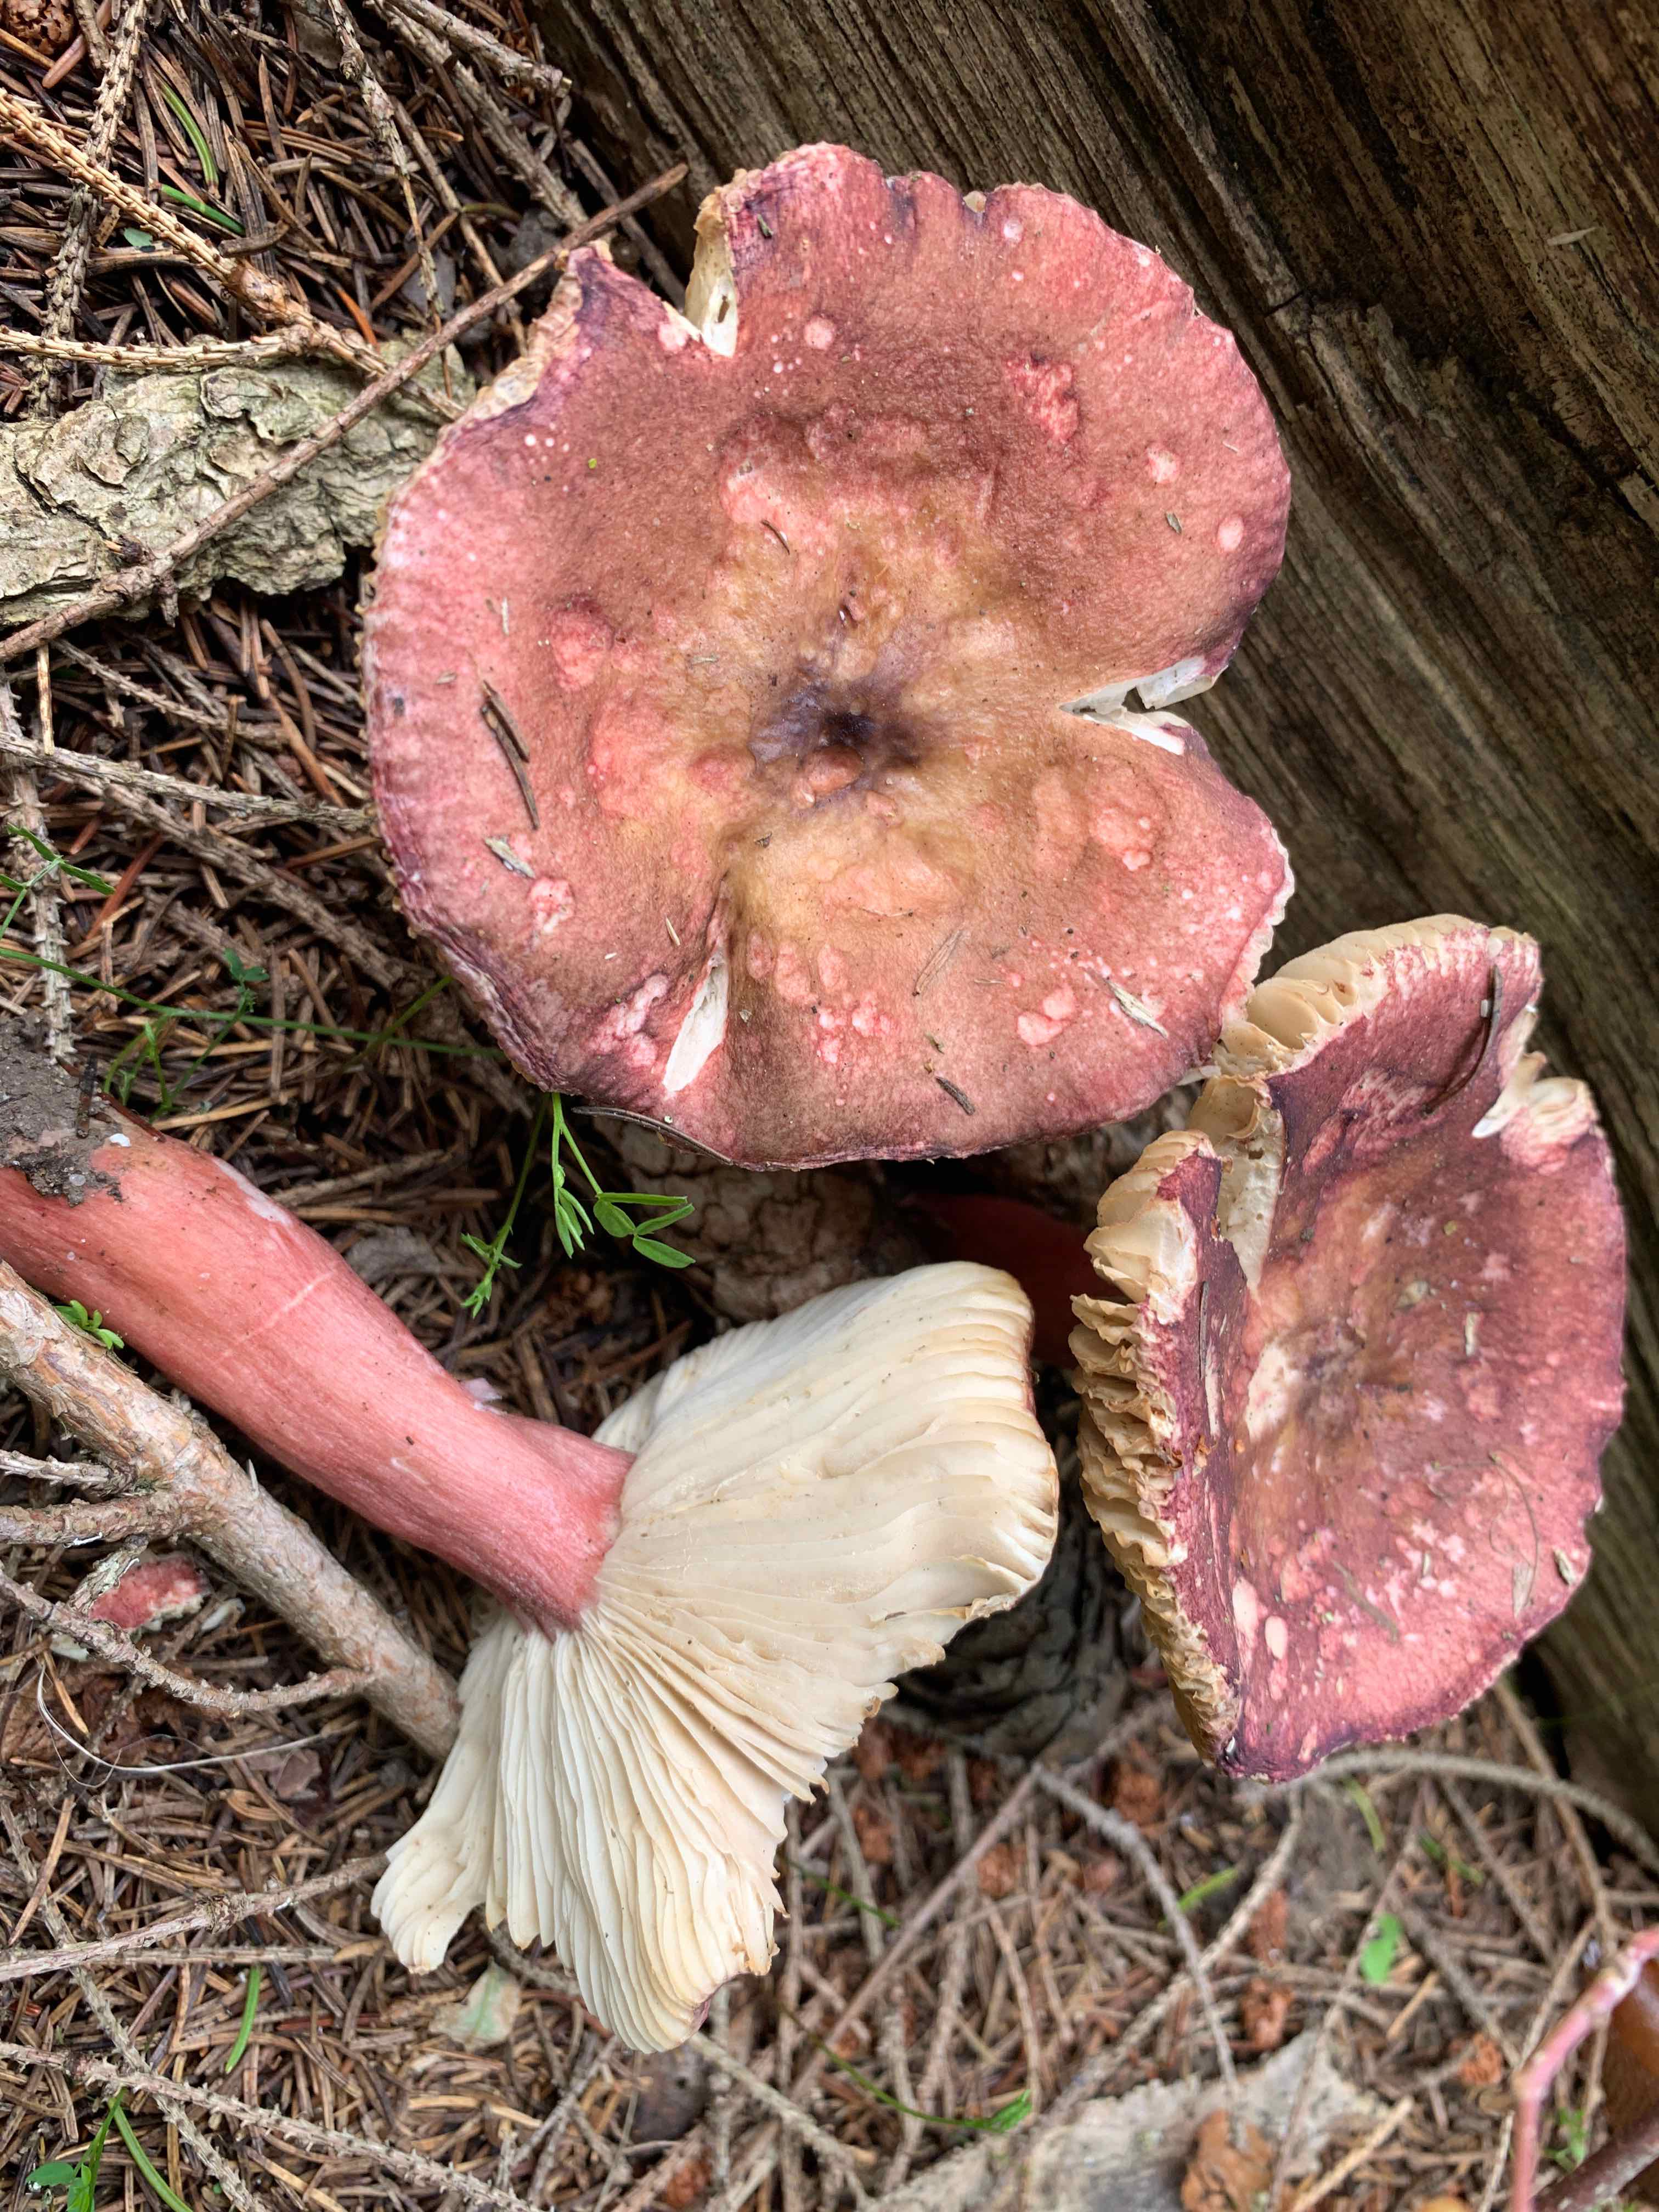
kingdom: Fungi
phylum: Basidiomycota
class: Agaricomycetes
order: Russulales
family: Russulaceae
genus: Russula
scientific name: Russula queletii
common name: Quélets skørhat
